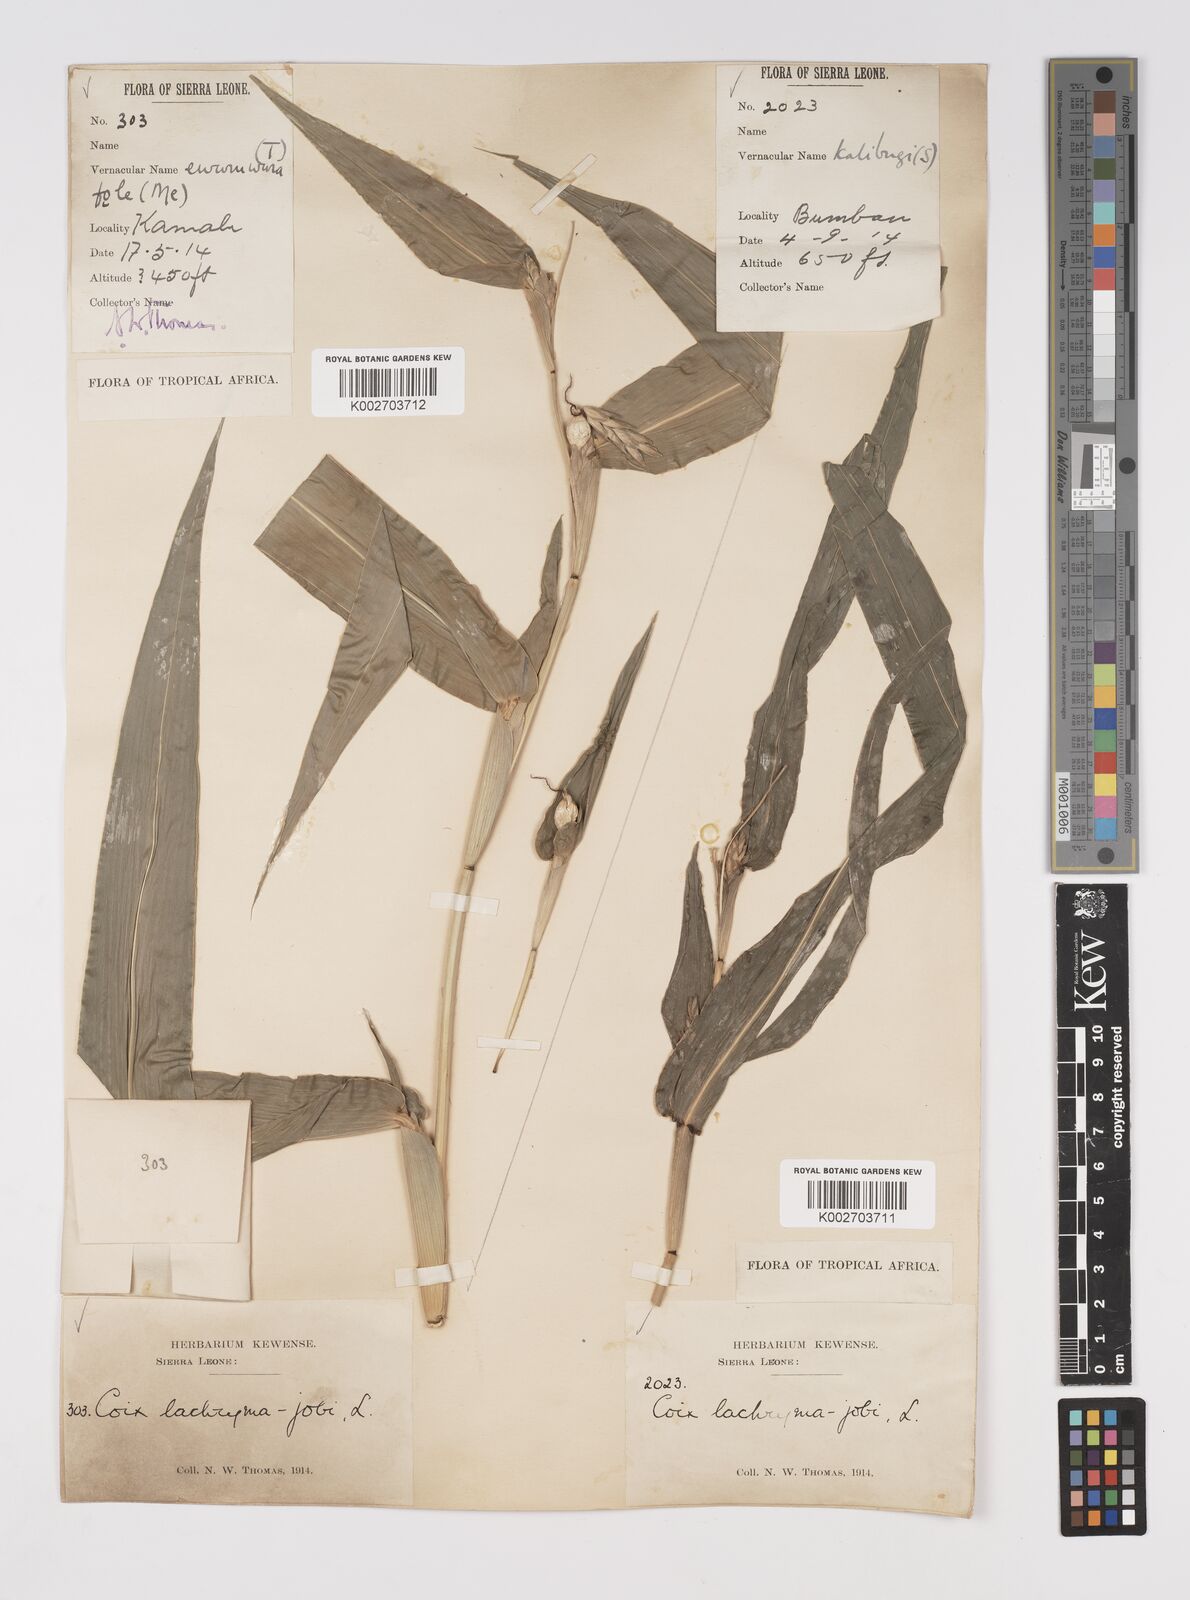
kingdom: Plantae
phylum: Tracheophyta
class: Liliopsida
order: Poales
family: Poaceae
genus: Coix
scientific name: Coix lacryma-jobi
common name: Job's tears
